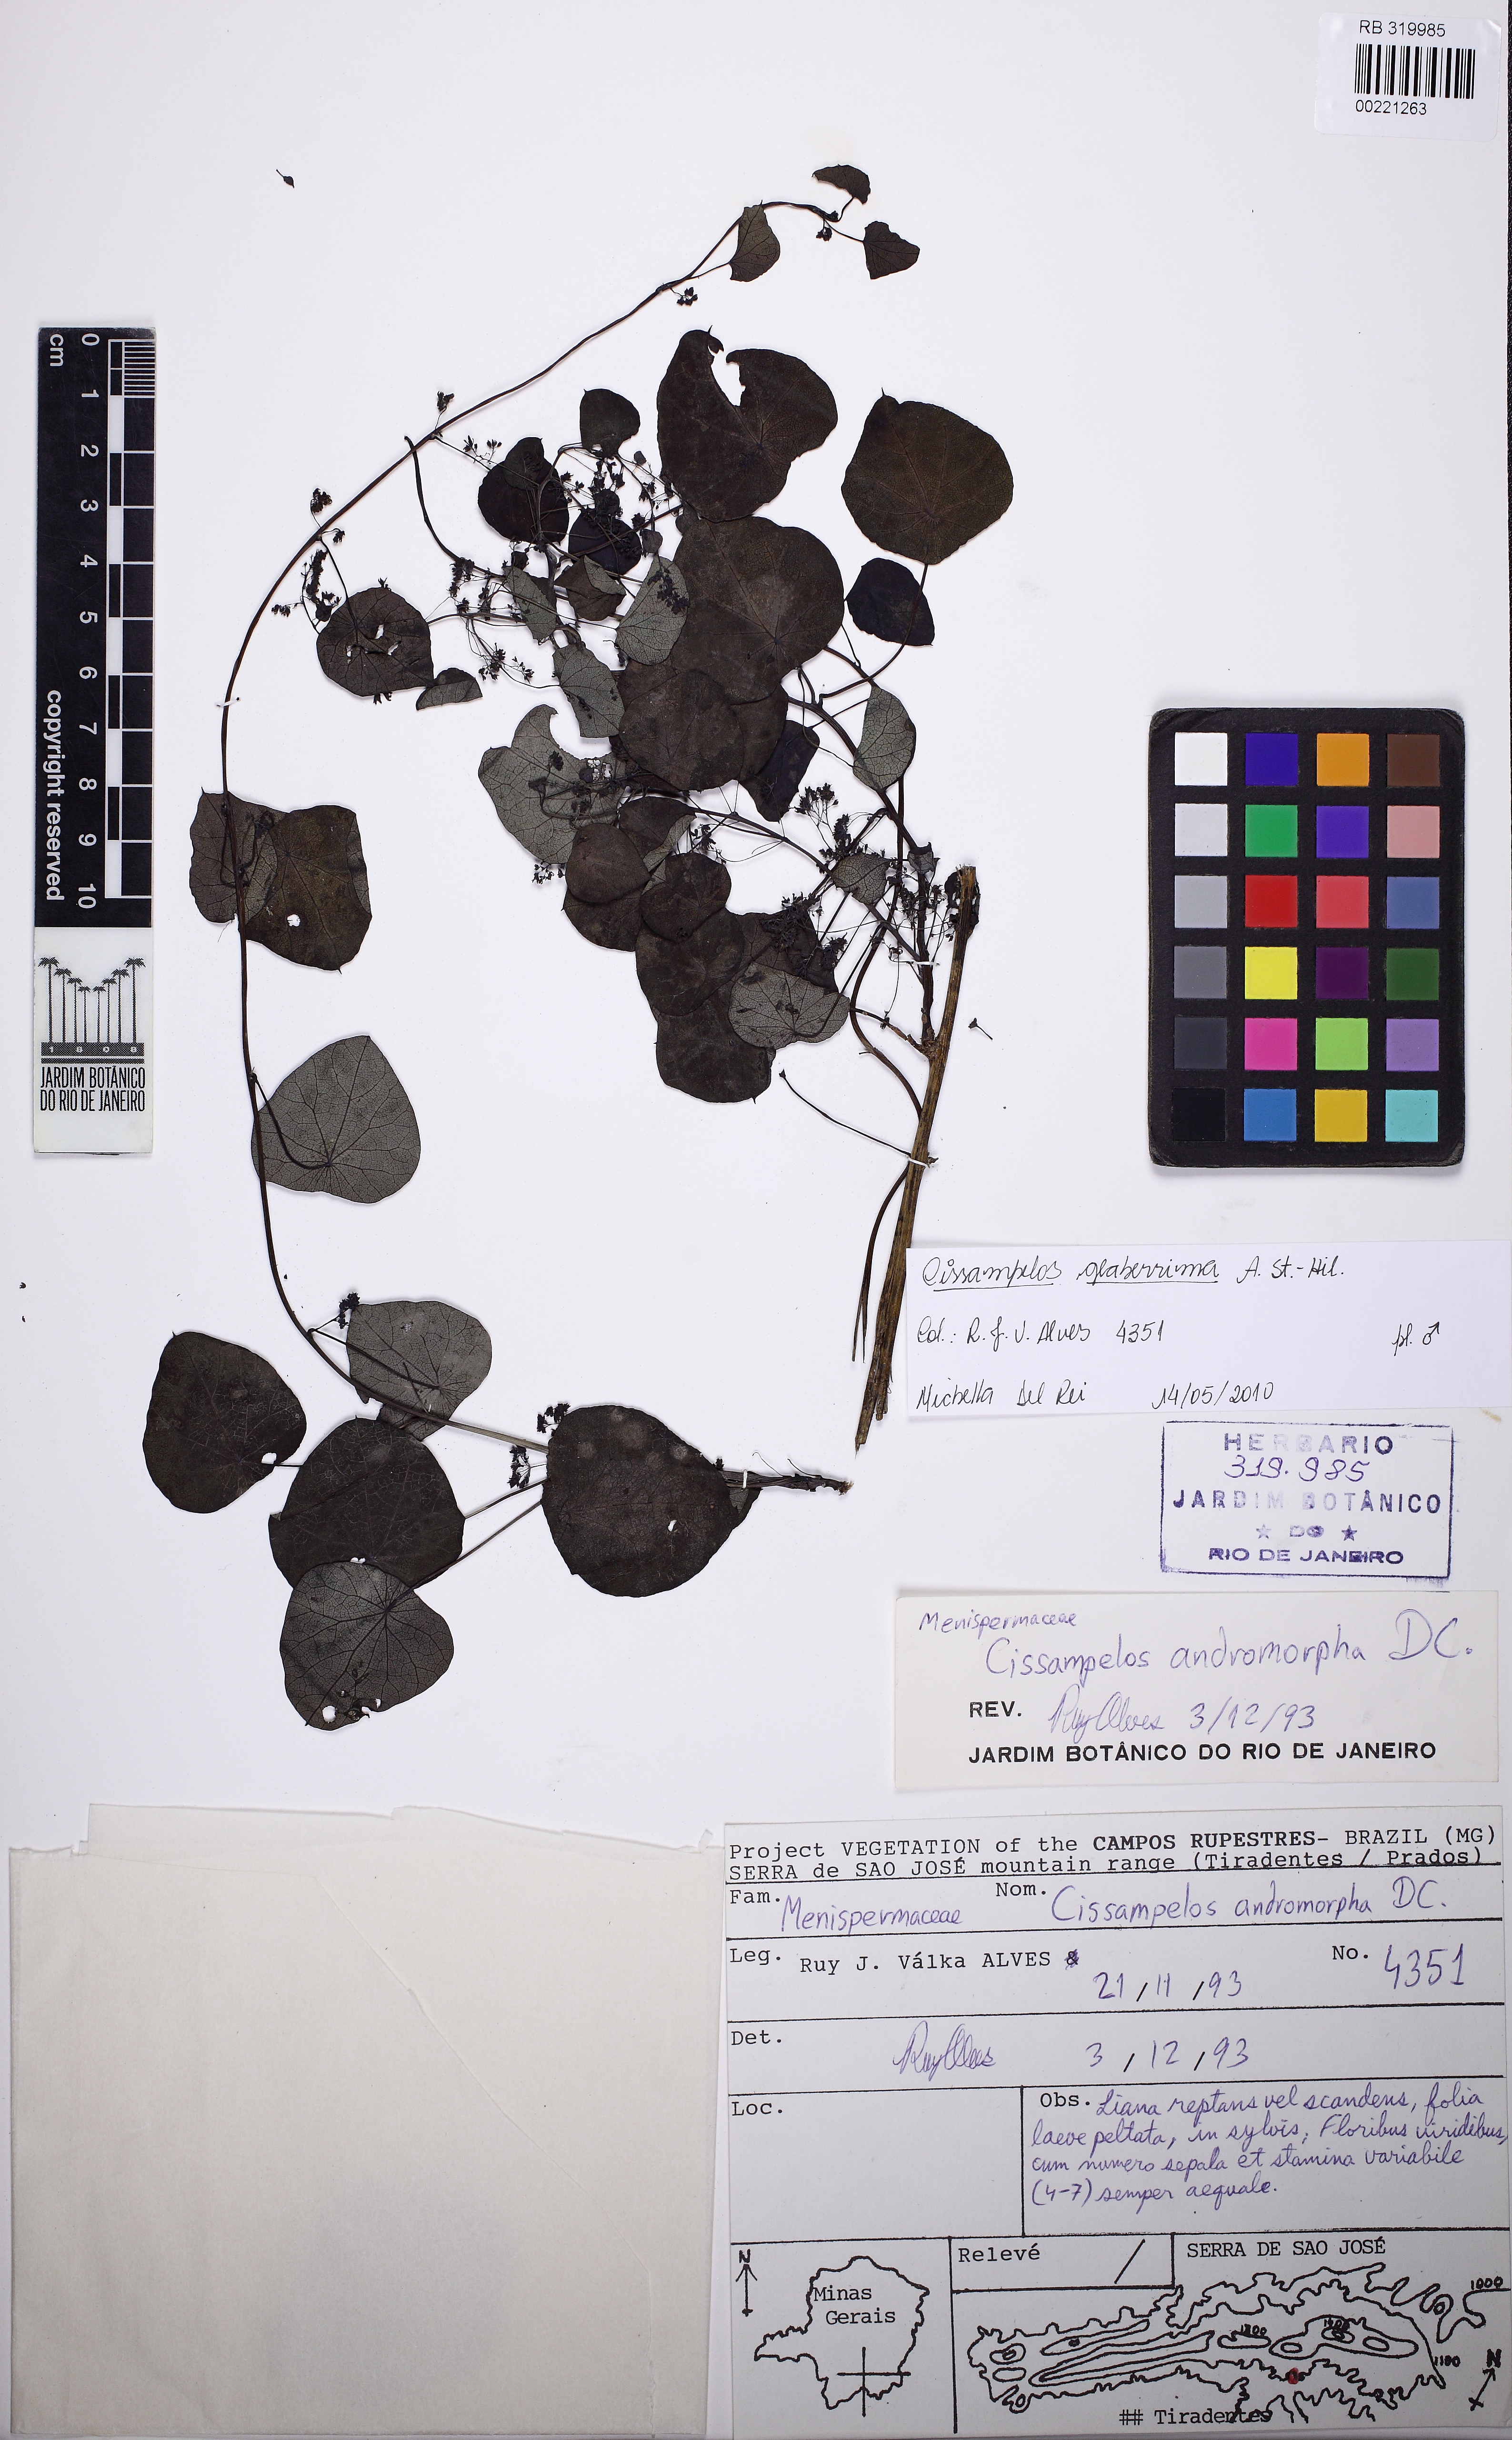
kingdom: Plantae
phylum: Tracheophyta
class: Magnoliopsida
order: Ranunculales
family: Menispermaceae
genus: Cissampelos
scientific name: Cissampelos glaberrima
